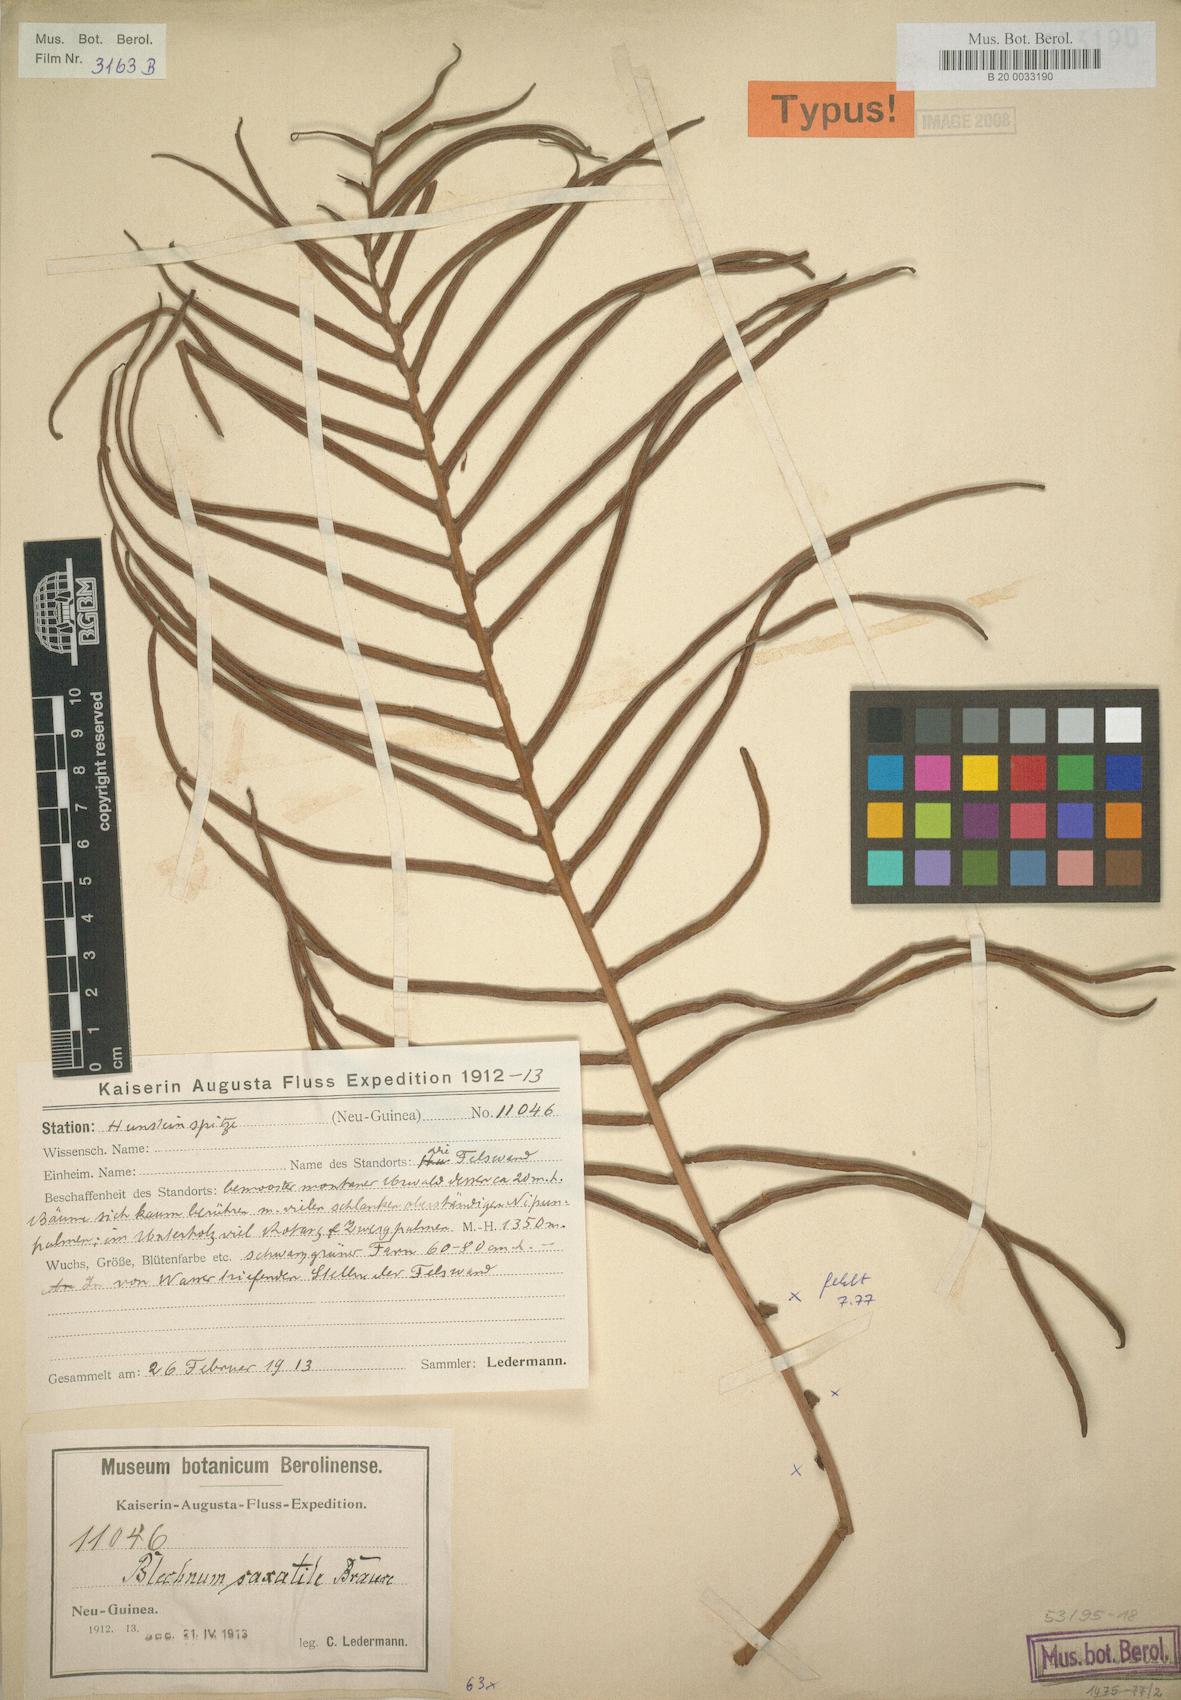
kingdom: Plantae
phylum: Tracheophyta
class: Polypodiopsida
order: Polypodiales
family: Blechnaceae
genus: Austroblechnum
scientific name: Austroblechnum keysseri
